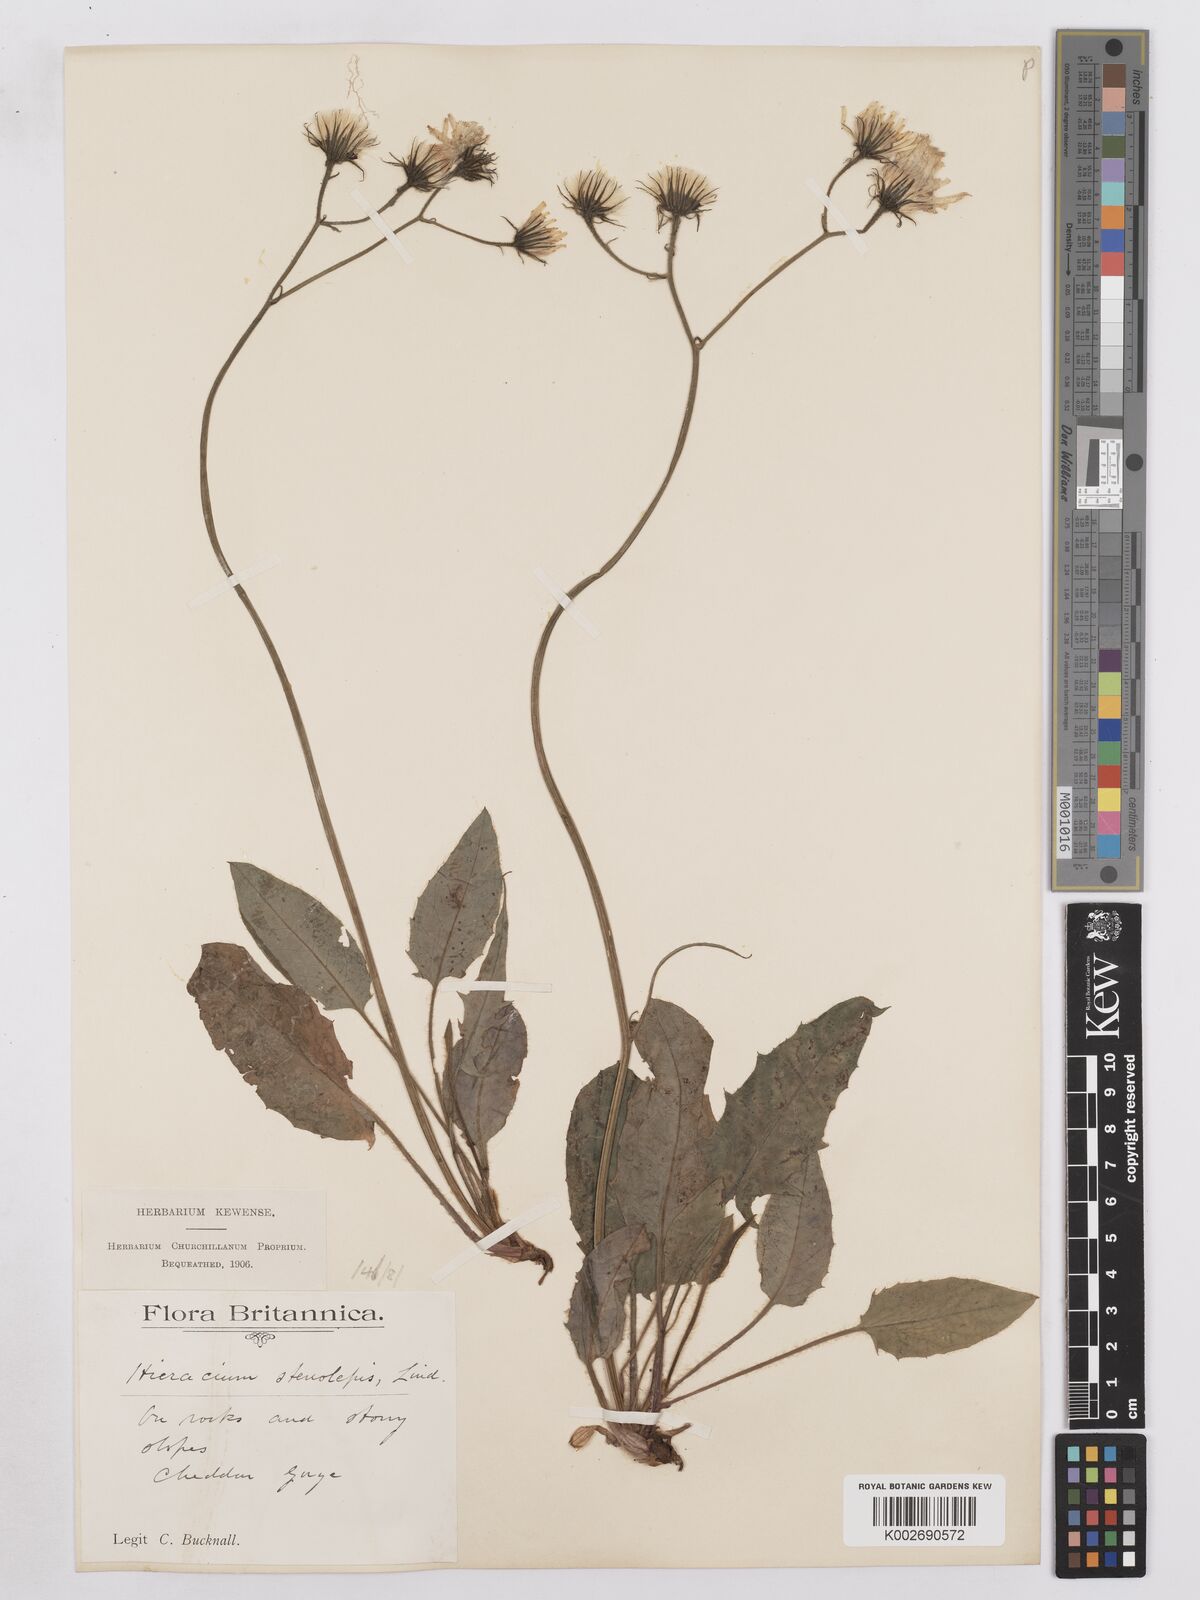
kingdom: Plantae
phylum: Tracheophyta
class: Magnoliopsida
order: Asterales
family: Asteraceae
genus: Hieracium
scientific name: Hieracium subbritannicum
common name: Limestone hawkweed
